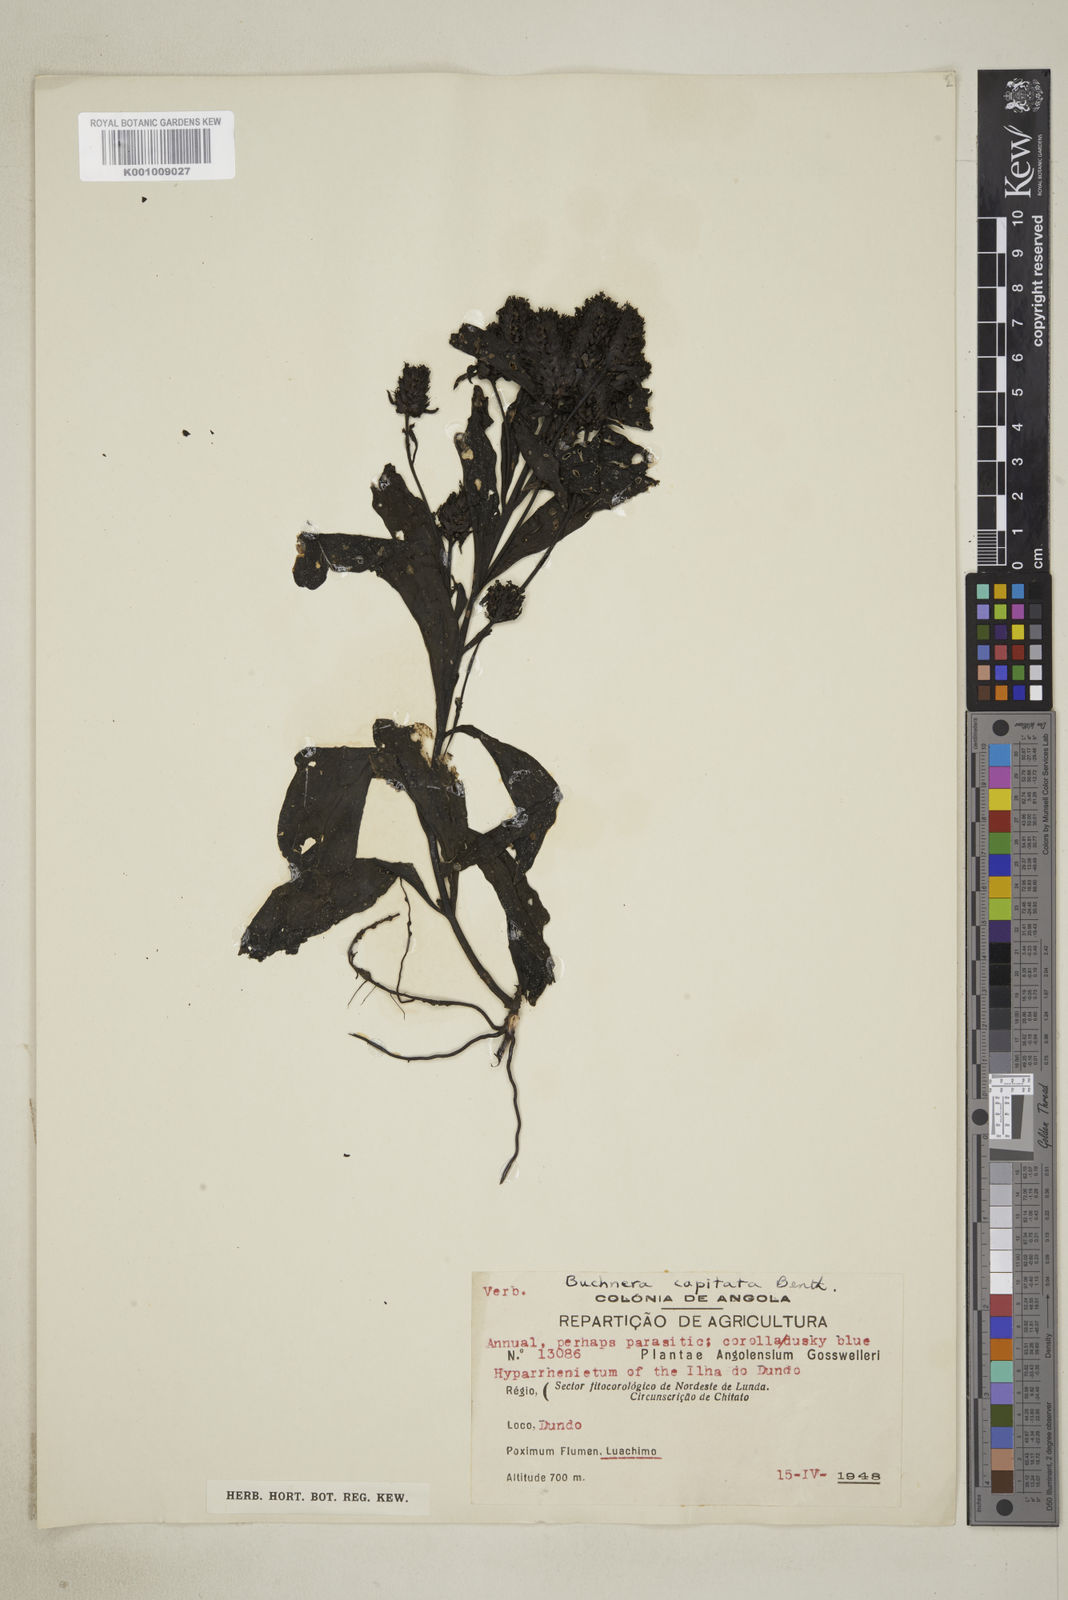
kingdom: Plantae
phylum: Tracheophyta
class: Magnoliopsida
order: Lamiales
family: Orobanchaceae
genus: Buchnera
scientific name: Buchnera decandollei
